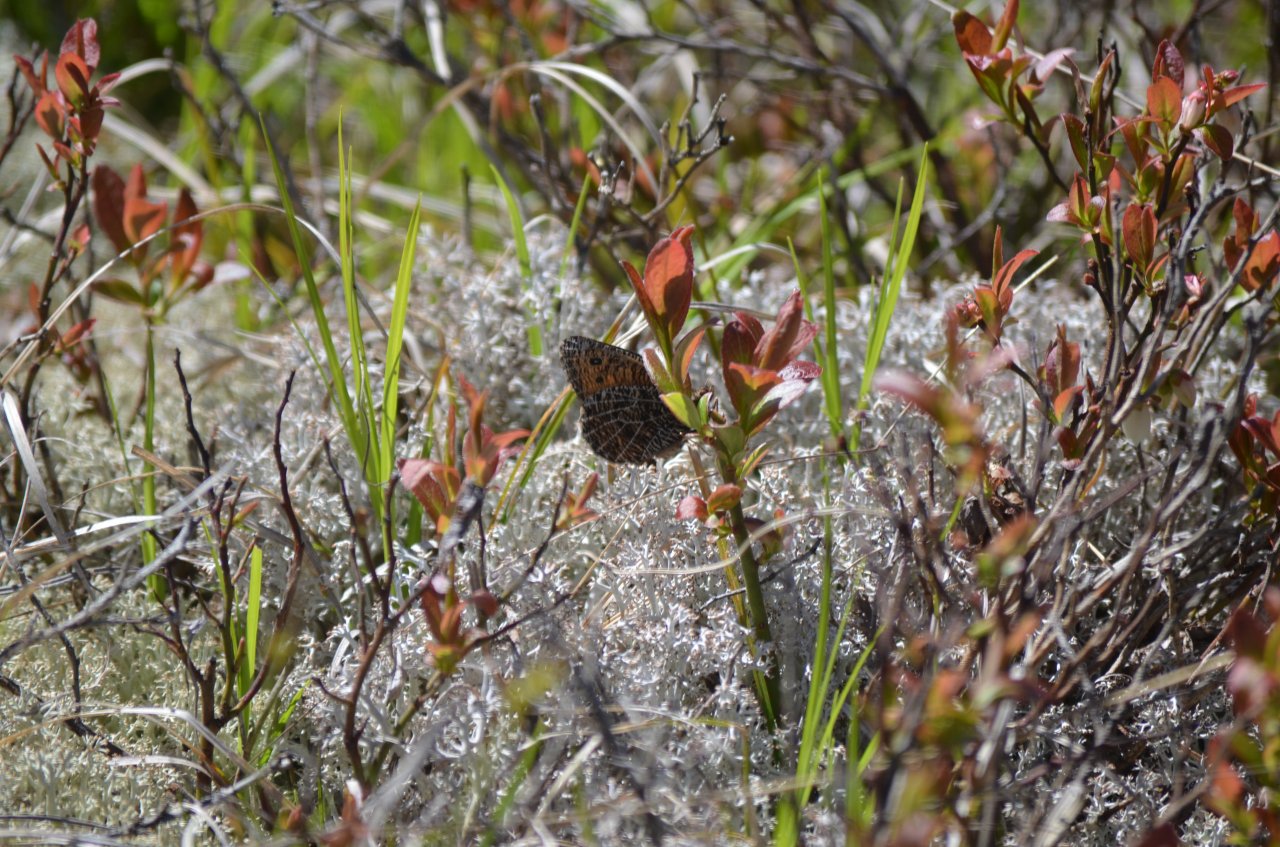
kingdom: Animalia
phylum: Arthropoda
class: Insecta
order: Lepidoptera
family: Nymphalidae
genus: Oeneis
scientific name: Oeneis chryxus
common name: Chryxus Arctic
